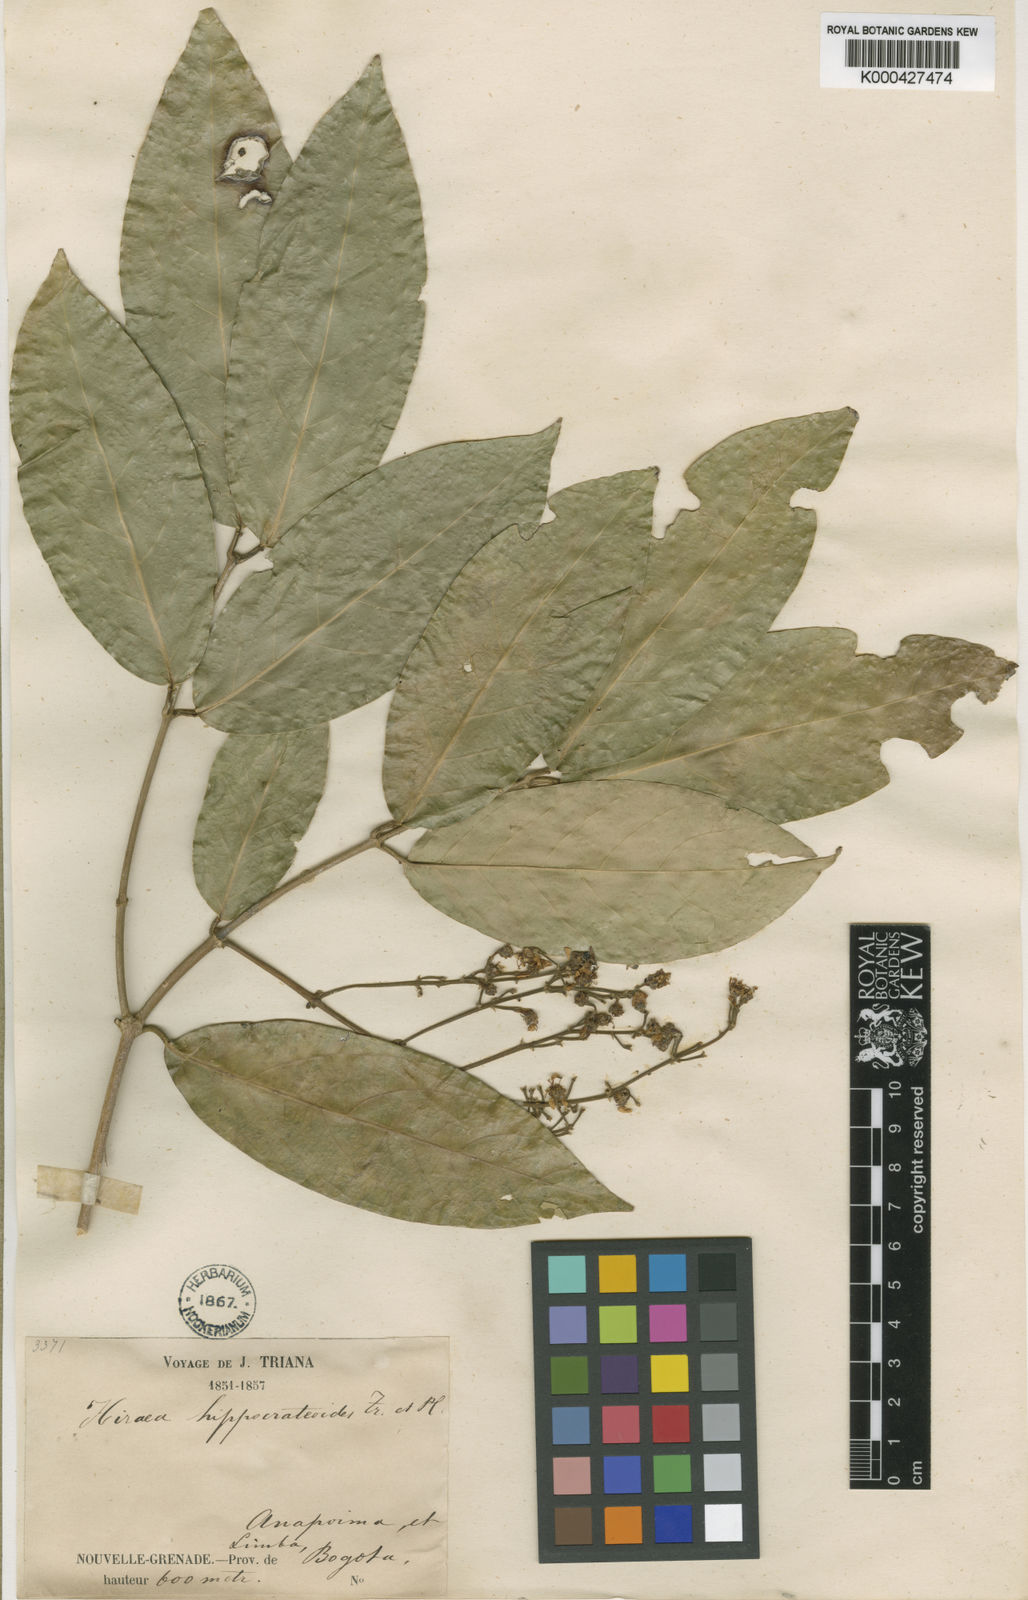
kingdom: Plantae
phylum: Tracheophyta
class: Magnoliopsida
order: Malpighiales
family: Malpighiaceae
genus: Adelphia
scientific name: Adelphia hiraea
